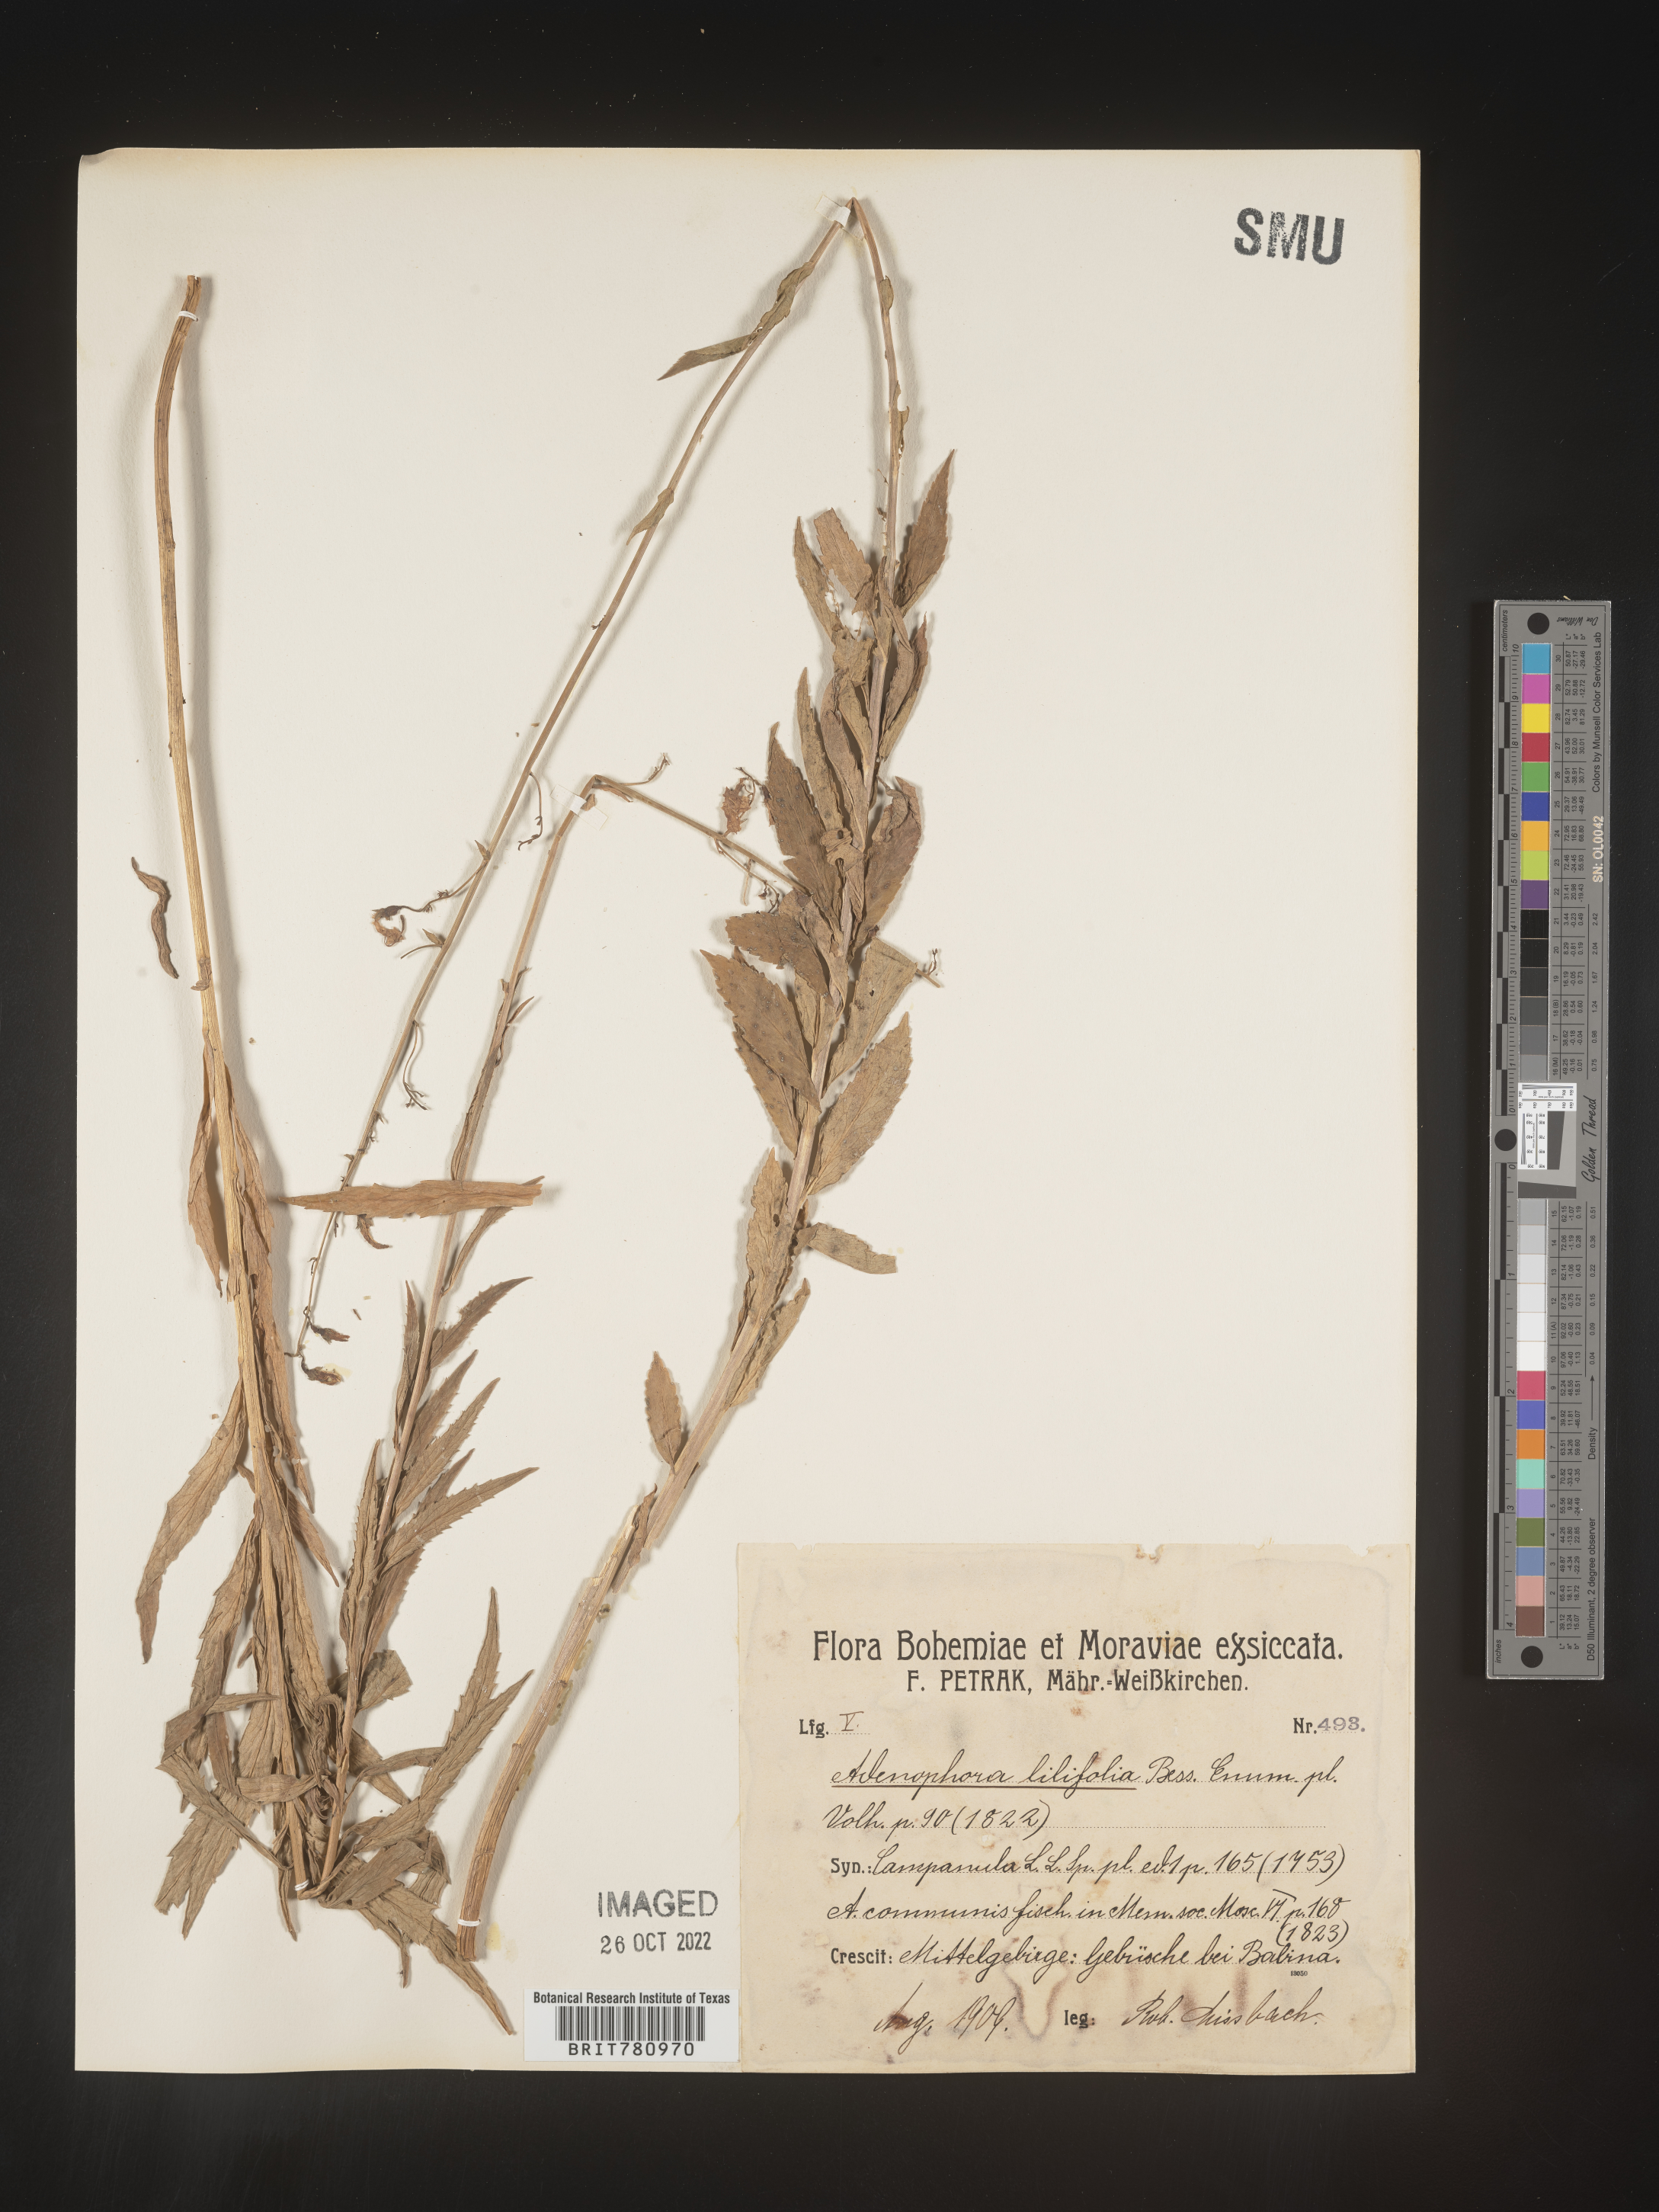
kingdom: Plantae
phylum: Tracheophyta
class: Magnoliopsida
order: Asterales
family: Campanulaceae
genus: Adenophora
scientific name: Adenophora
